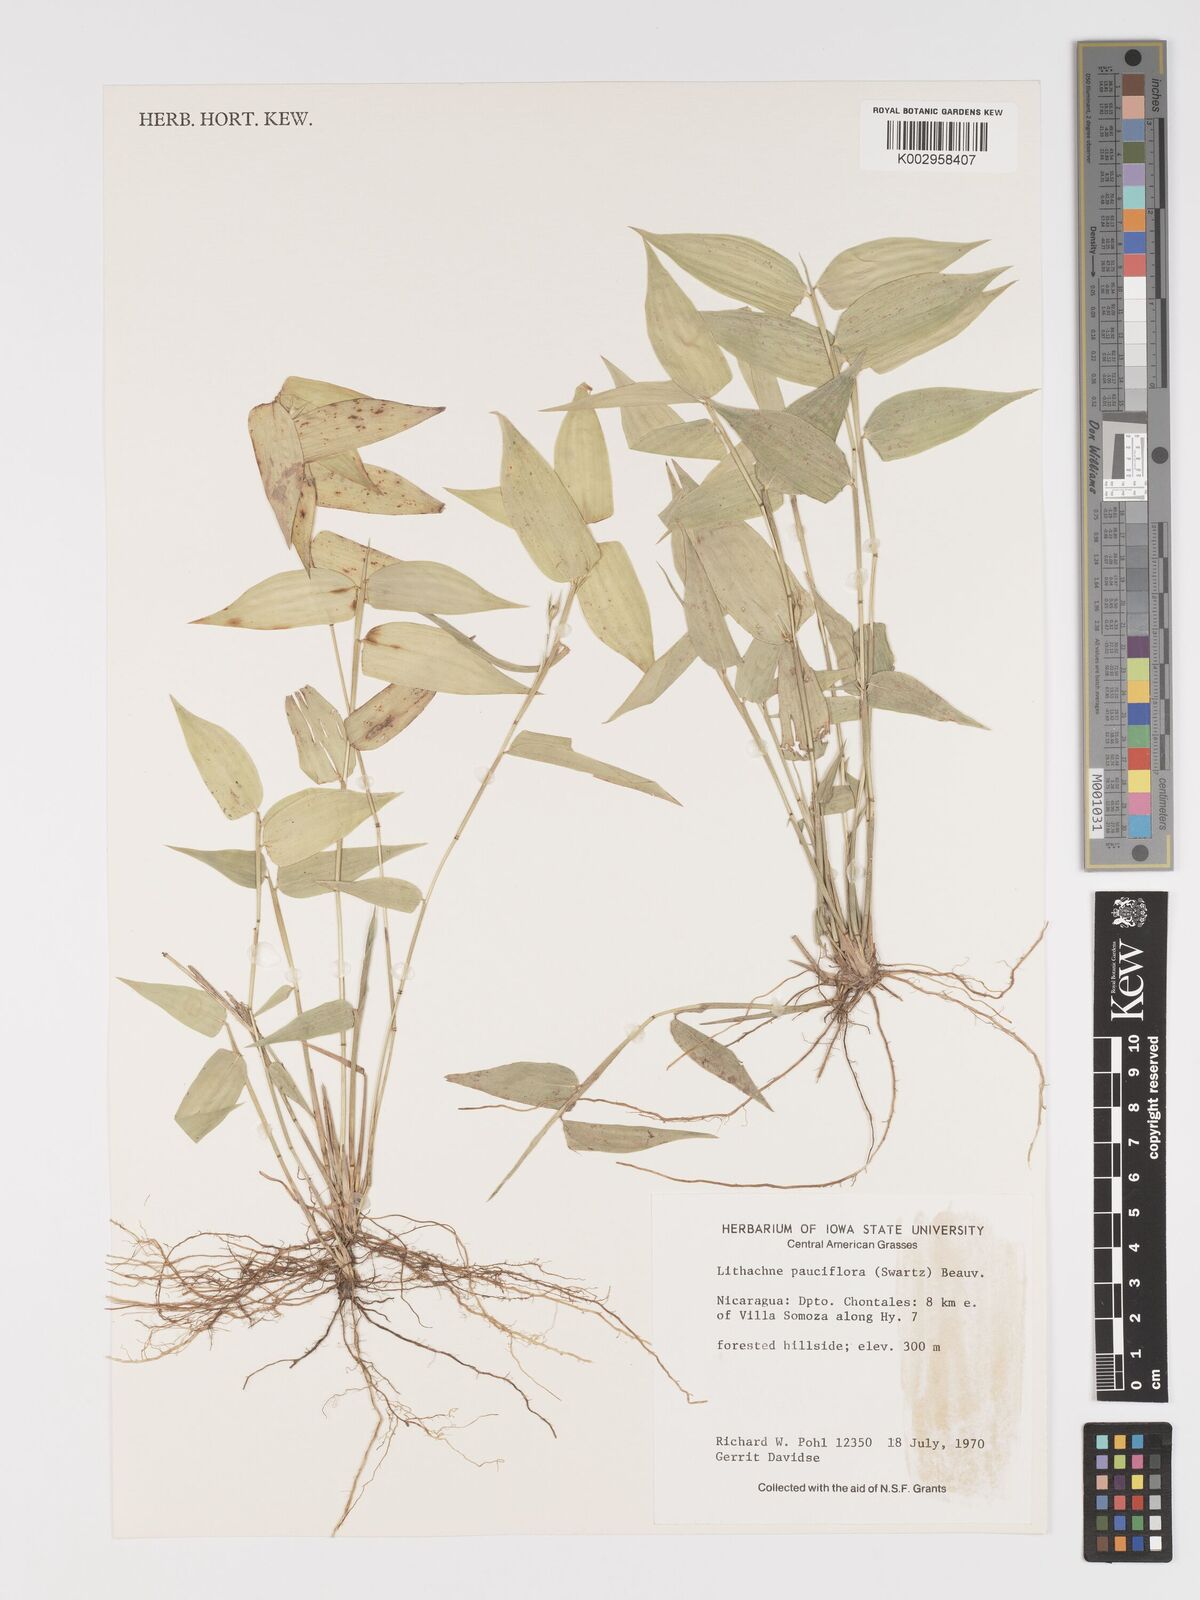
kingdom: Plantae
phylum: Tracheophyta
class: Liliopsida
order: Poales
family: Poaceae
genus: Lithachne
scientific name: Lithachne pauciflora
